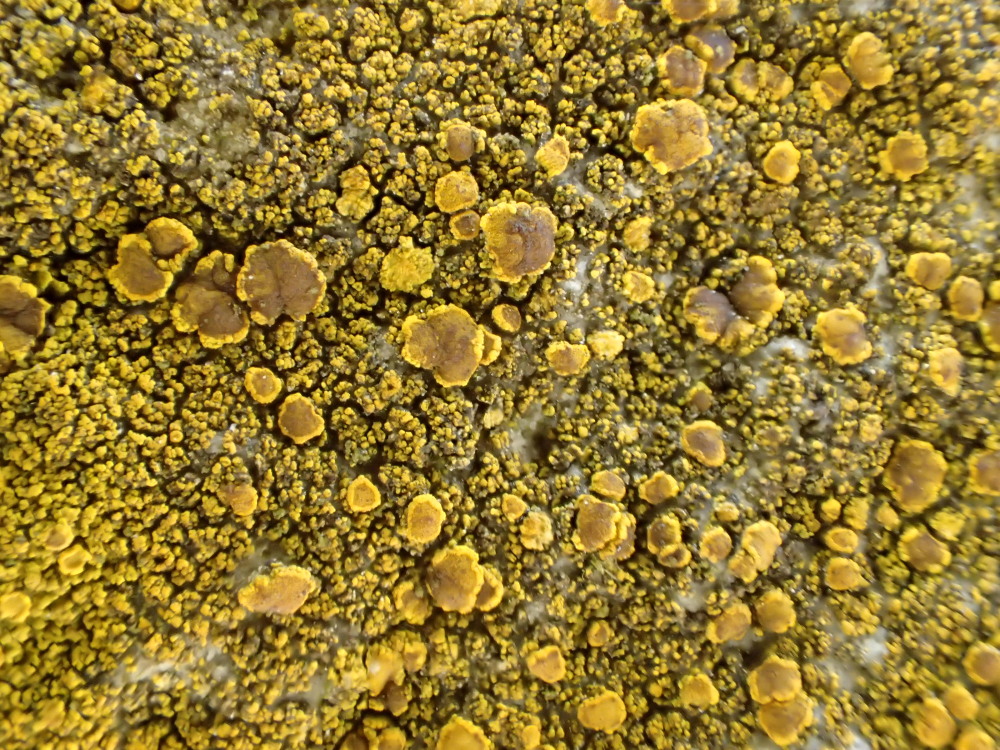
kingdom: Fungi
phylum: Ascomycota
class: Candelariomycetes
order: Candelariales
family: Candelariaceae
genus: Candelariella
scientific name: Candelariella vitellina
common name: almindelig æggeblommelav
